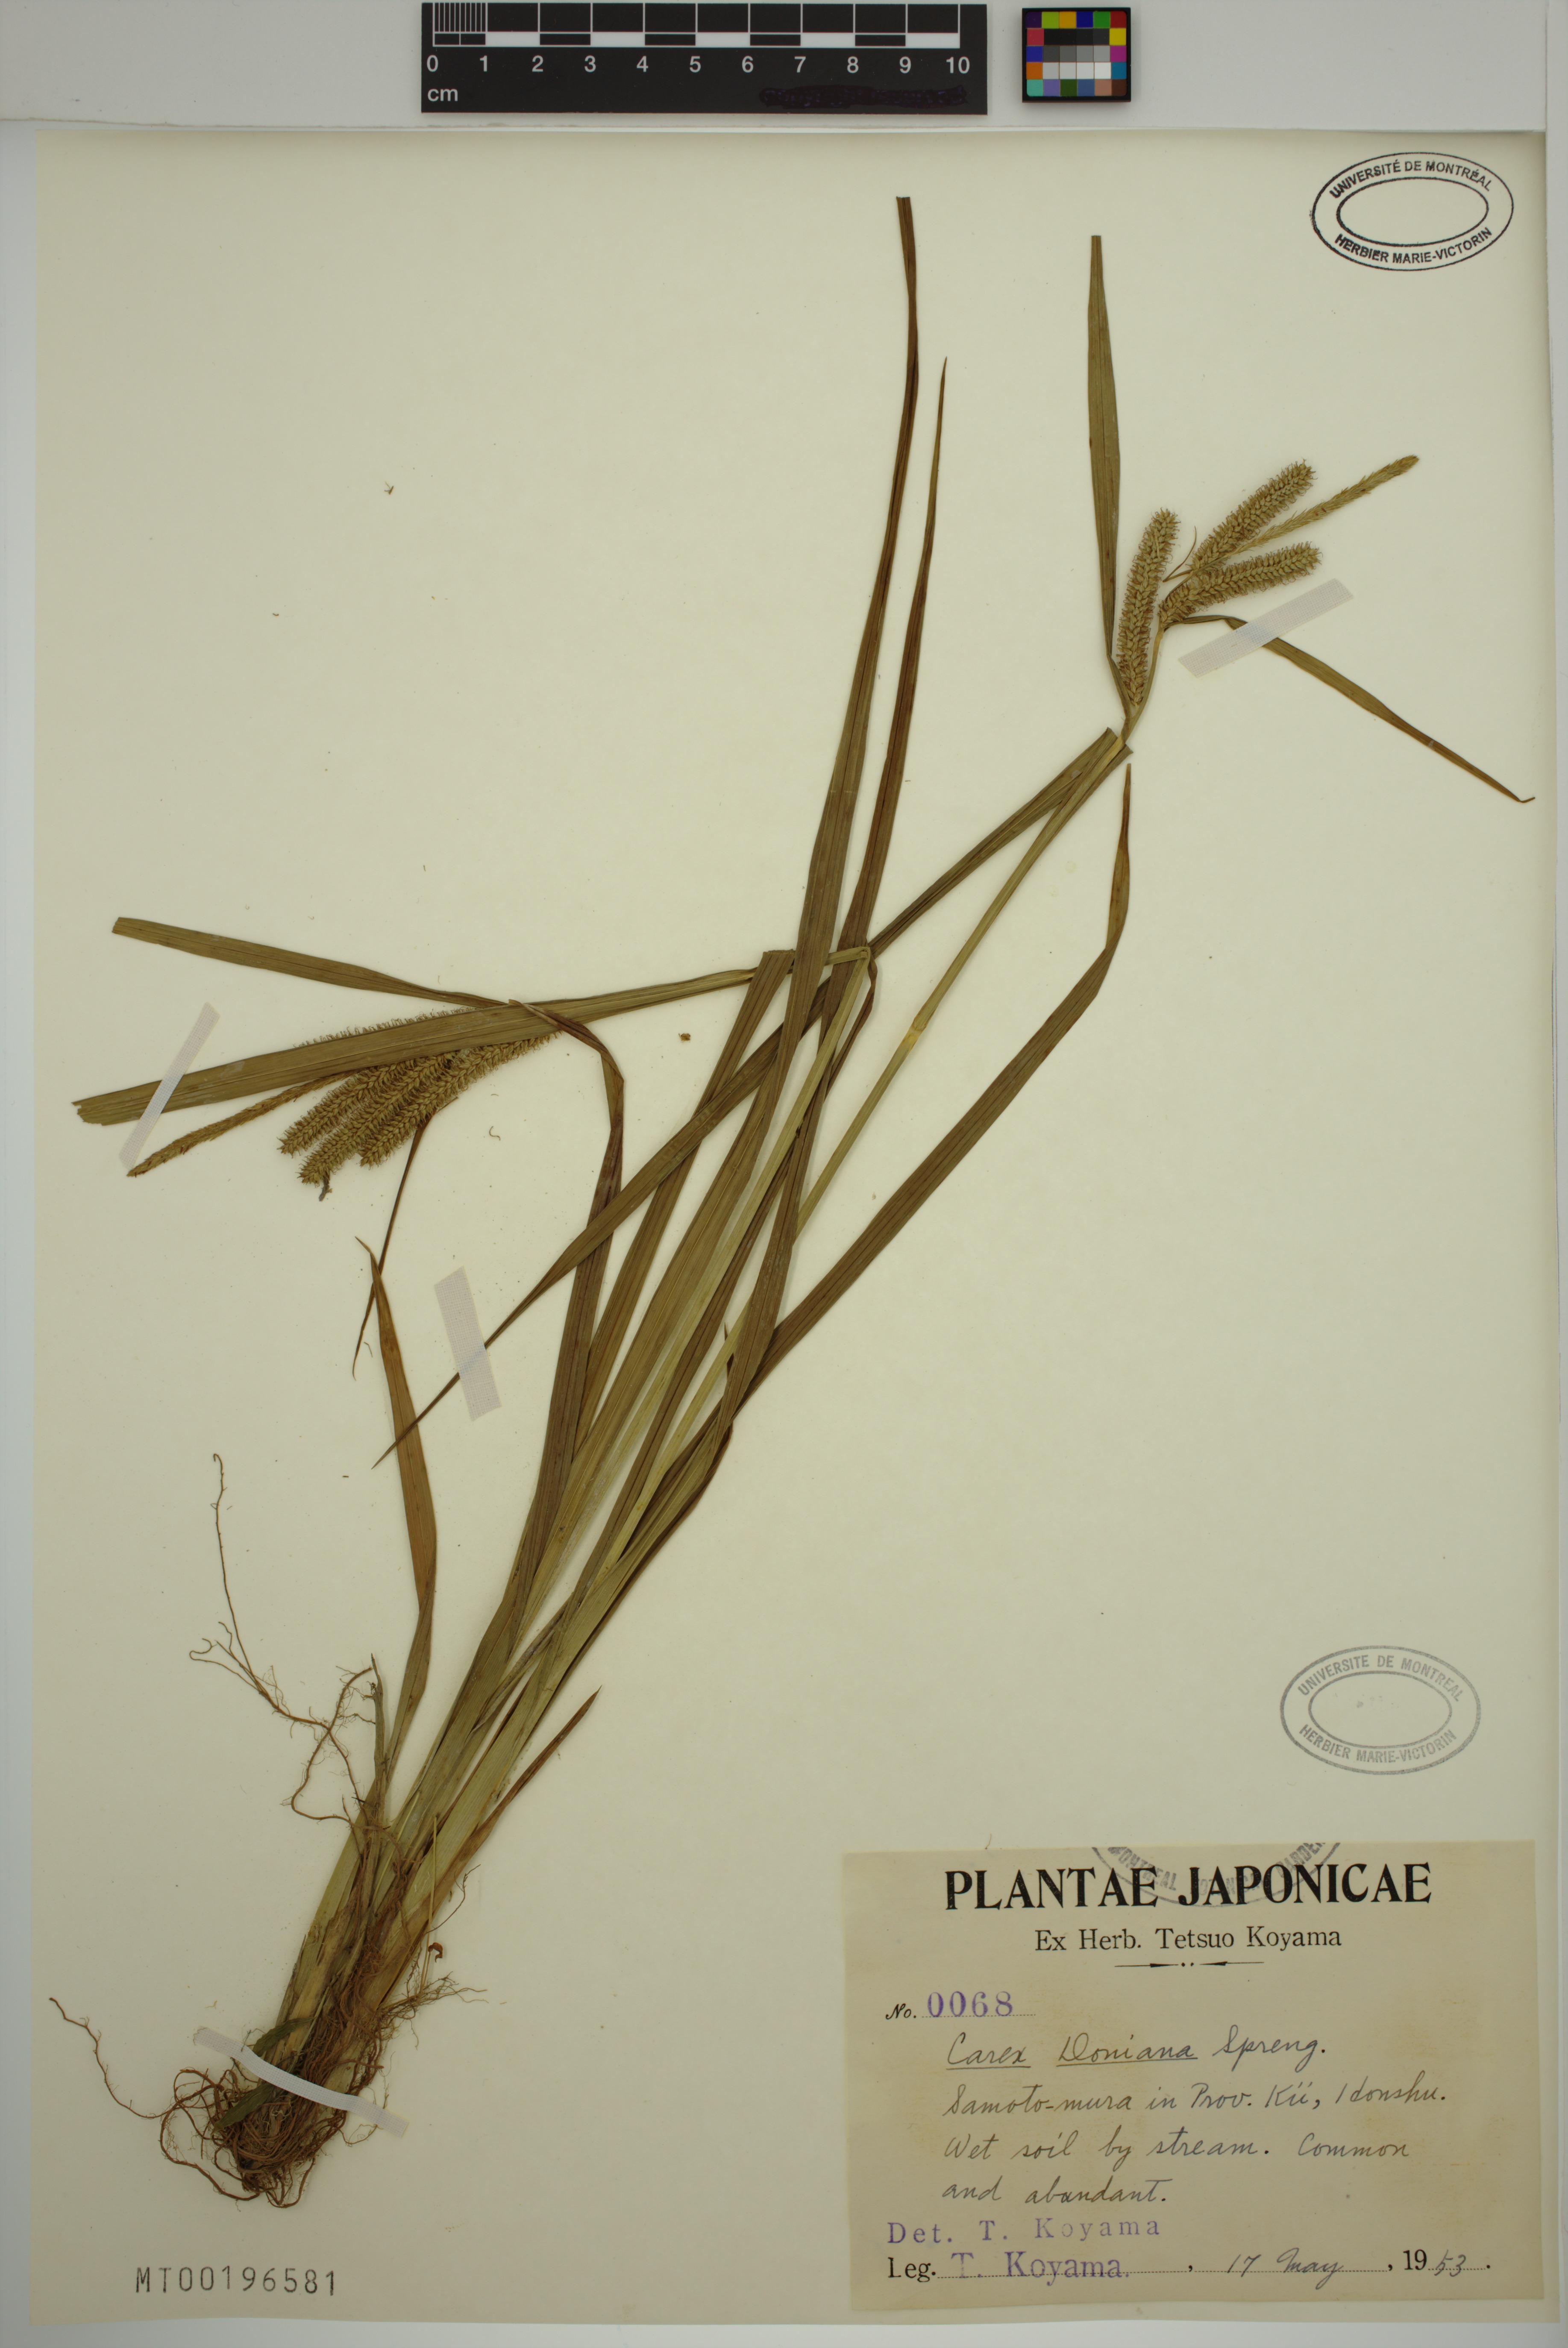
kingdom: Plantae
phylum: Tracheophyta
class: Liliopsida
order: Poales
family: Cyperaceae
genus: Carex
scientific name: Carex doniana
